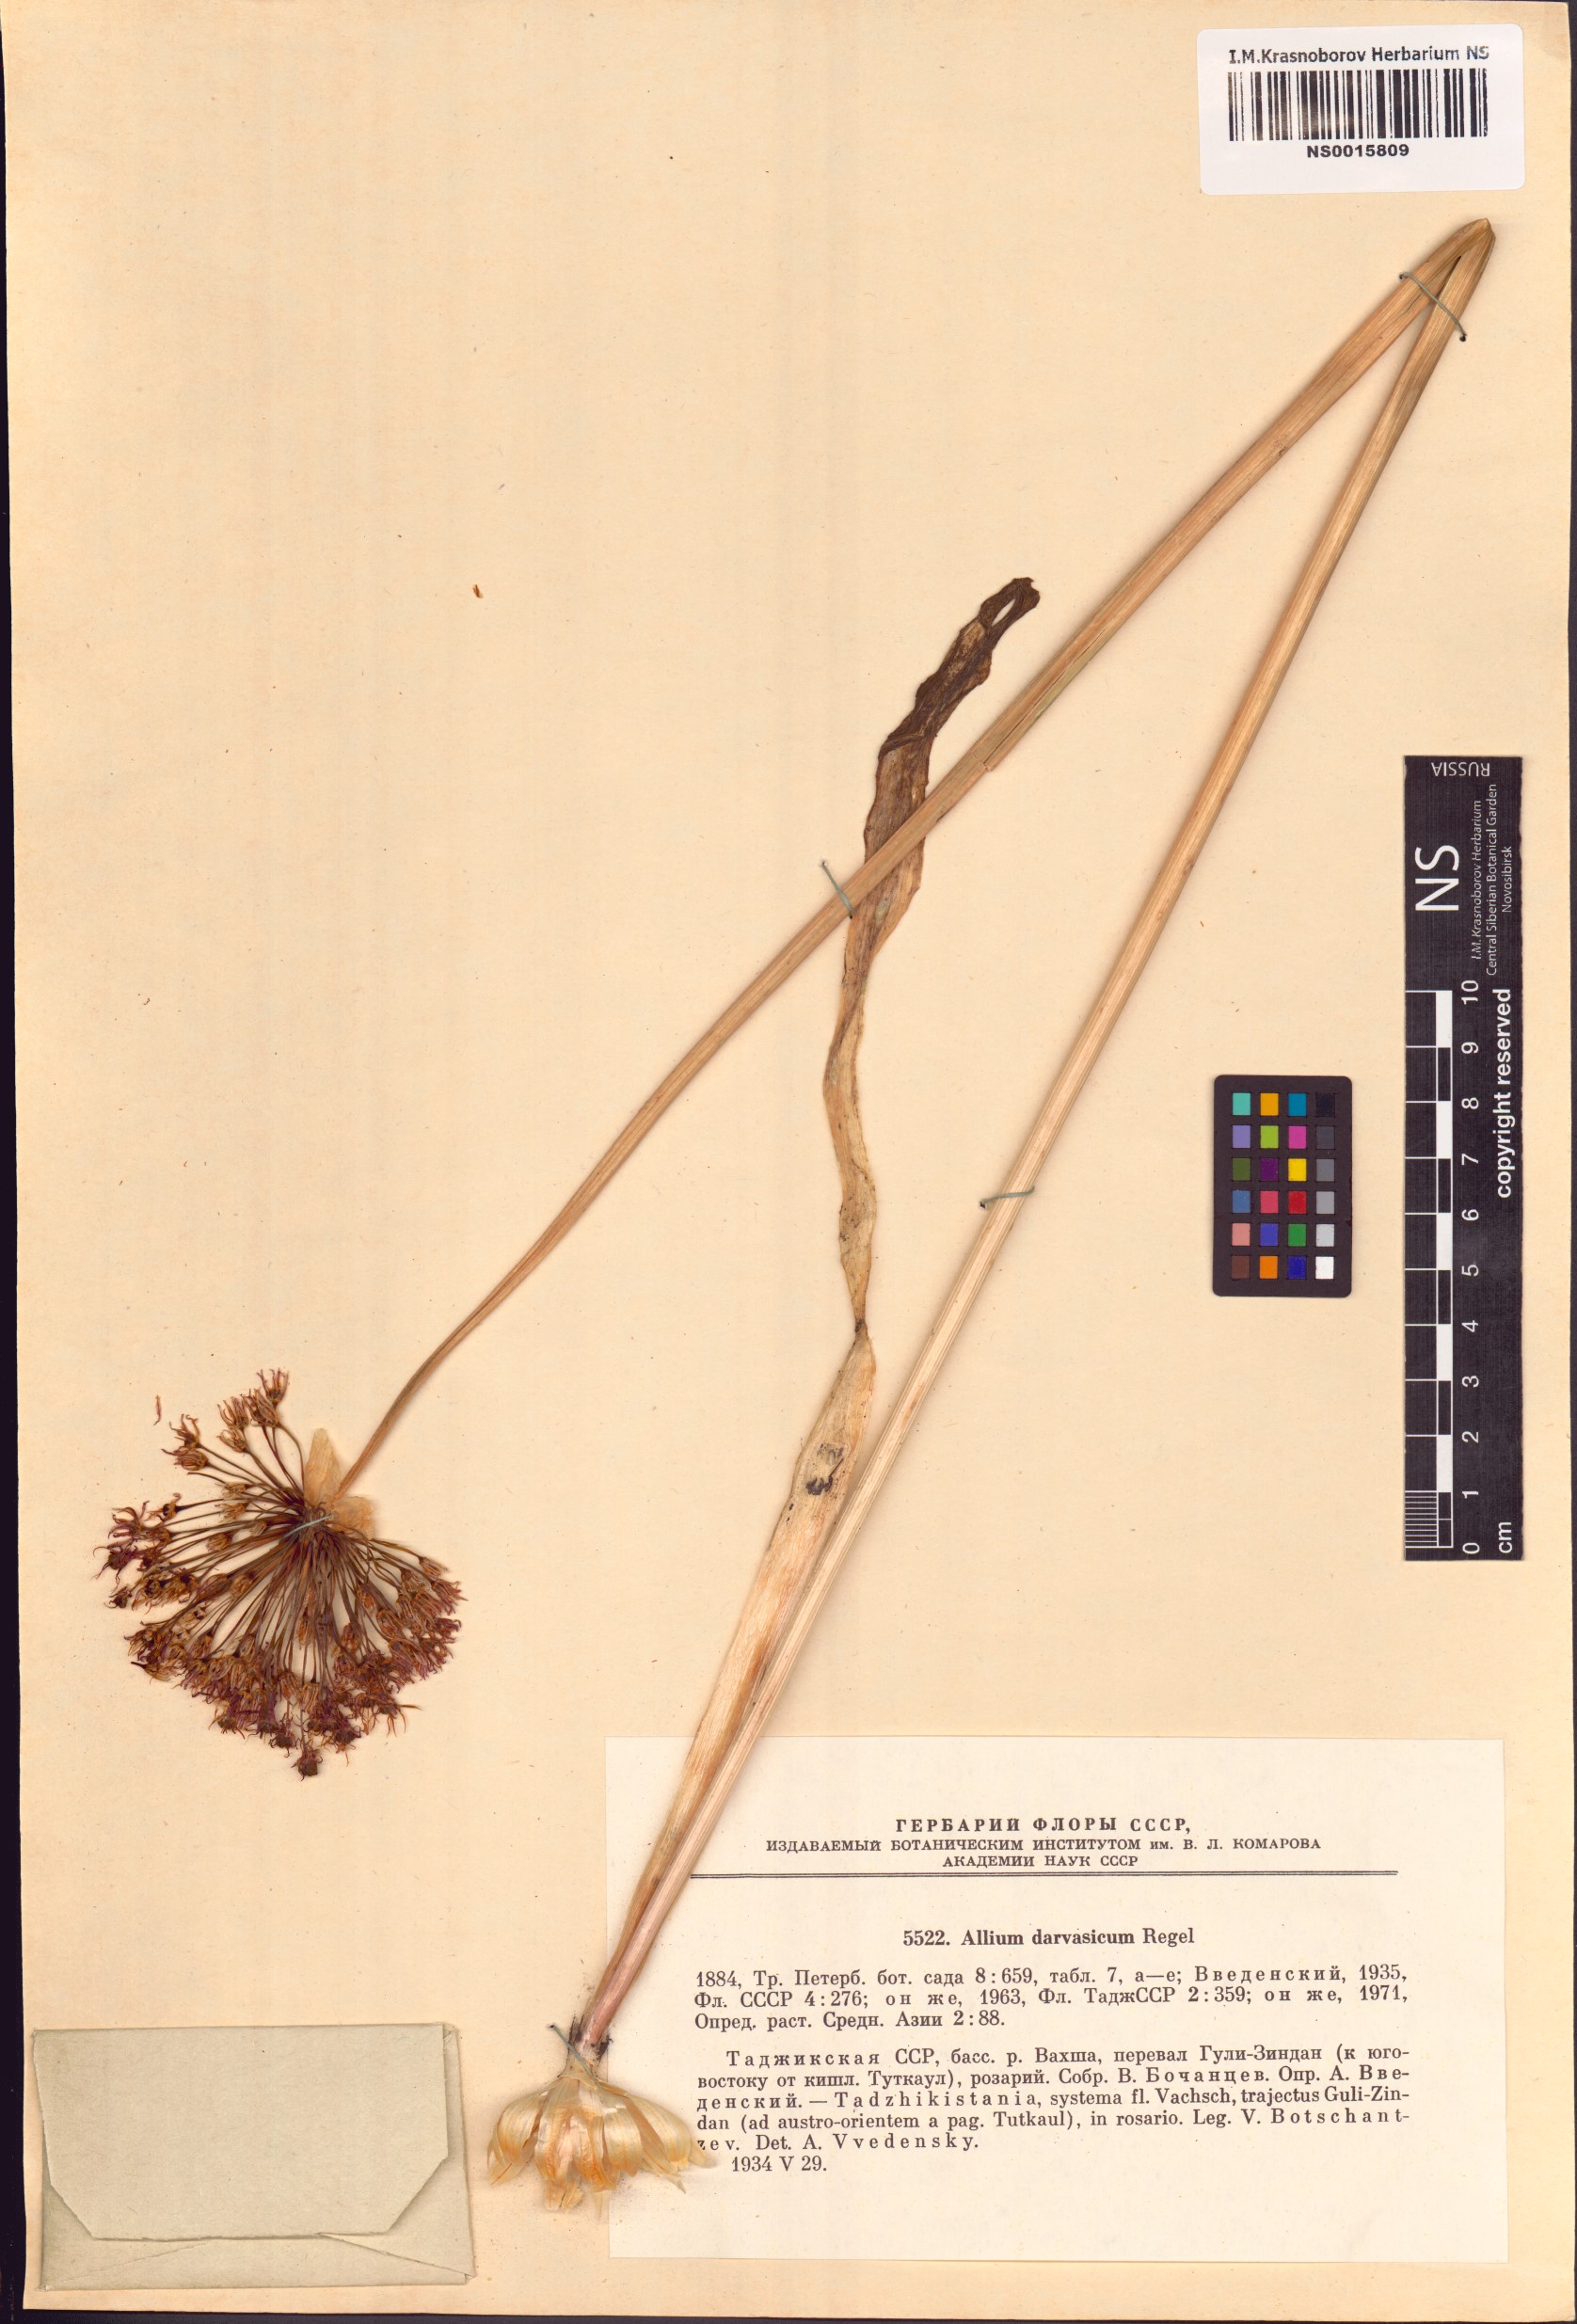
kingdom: Plantae
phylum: Tracheophyta
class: Liliopsida
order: Asparagales
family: Amaryllidaceae
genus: Allium
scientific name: Allium darwasicum
